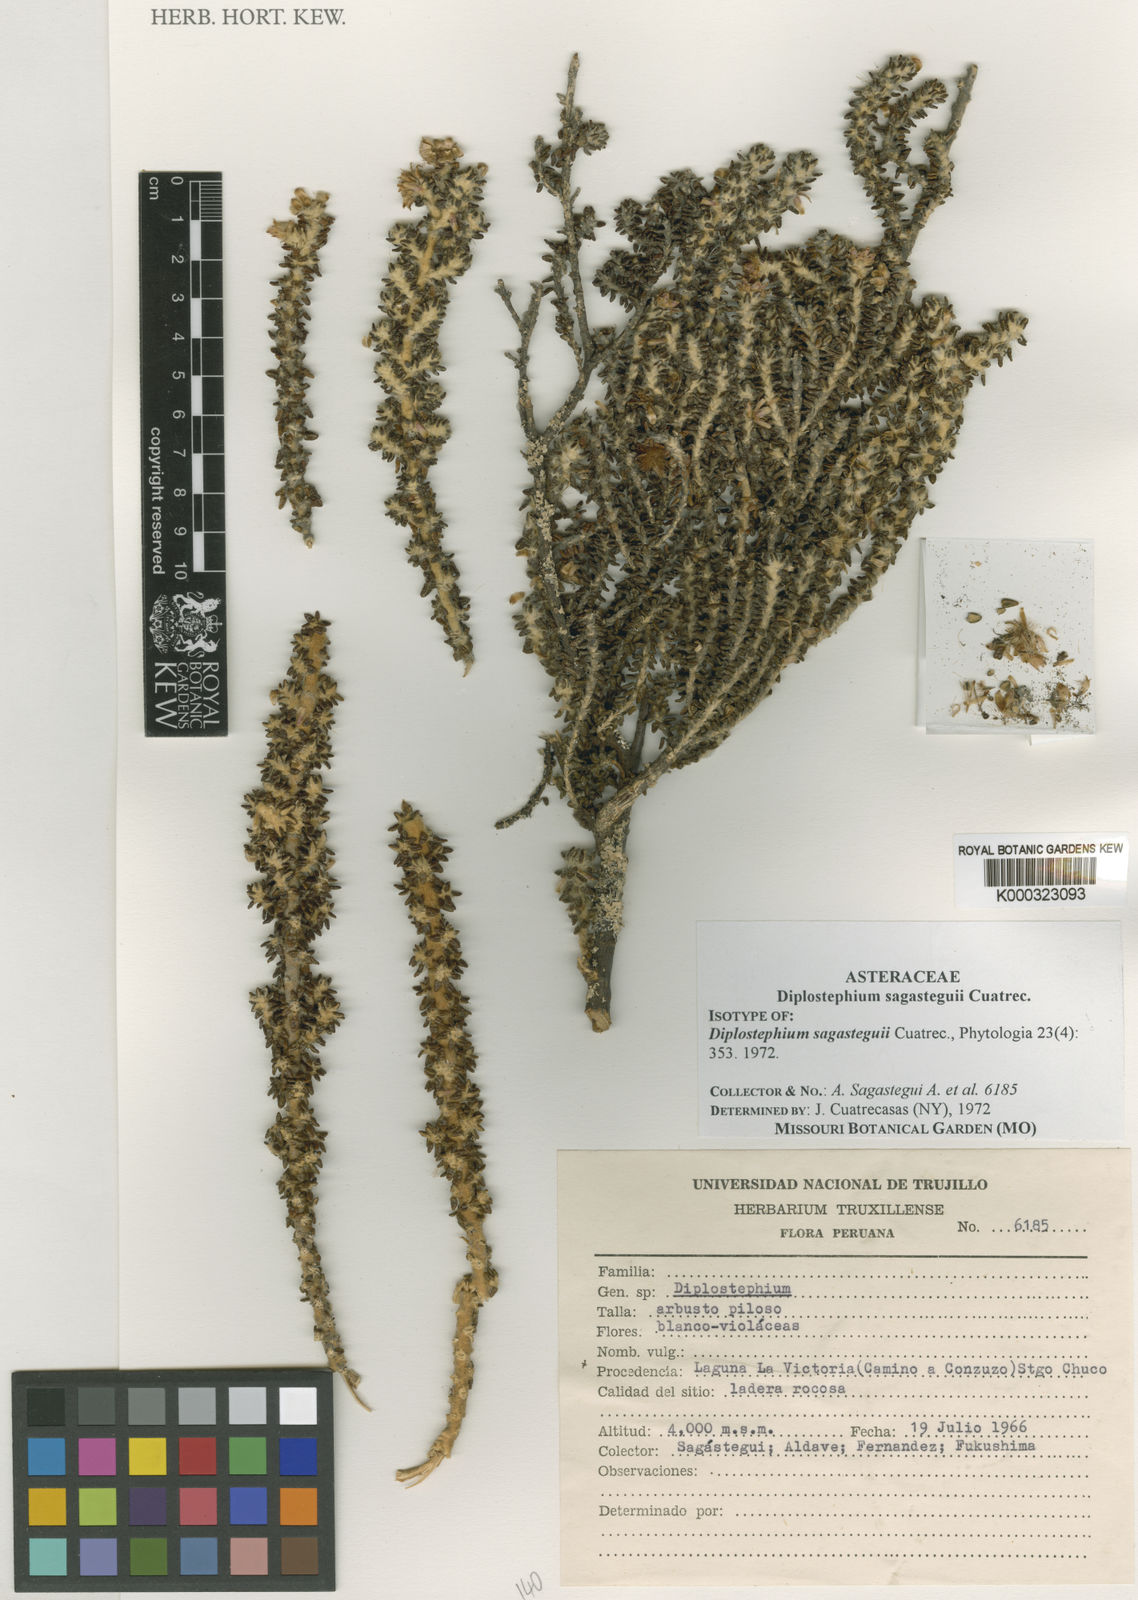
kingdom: Plantae
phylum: Tracheophyta
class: Magnoliopsida
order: Asterales
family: Asteraceae
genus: Diplostephium
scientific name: Diplostephium sagasteguii
